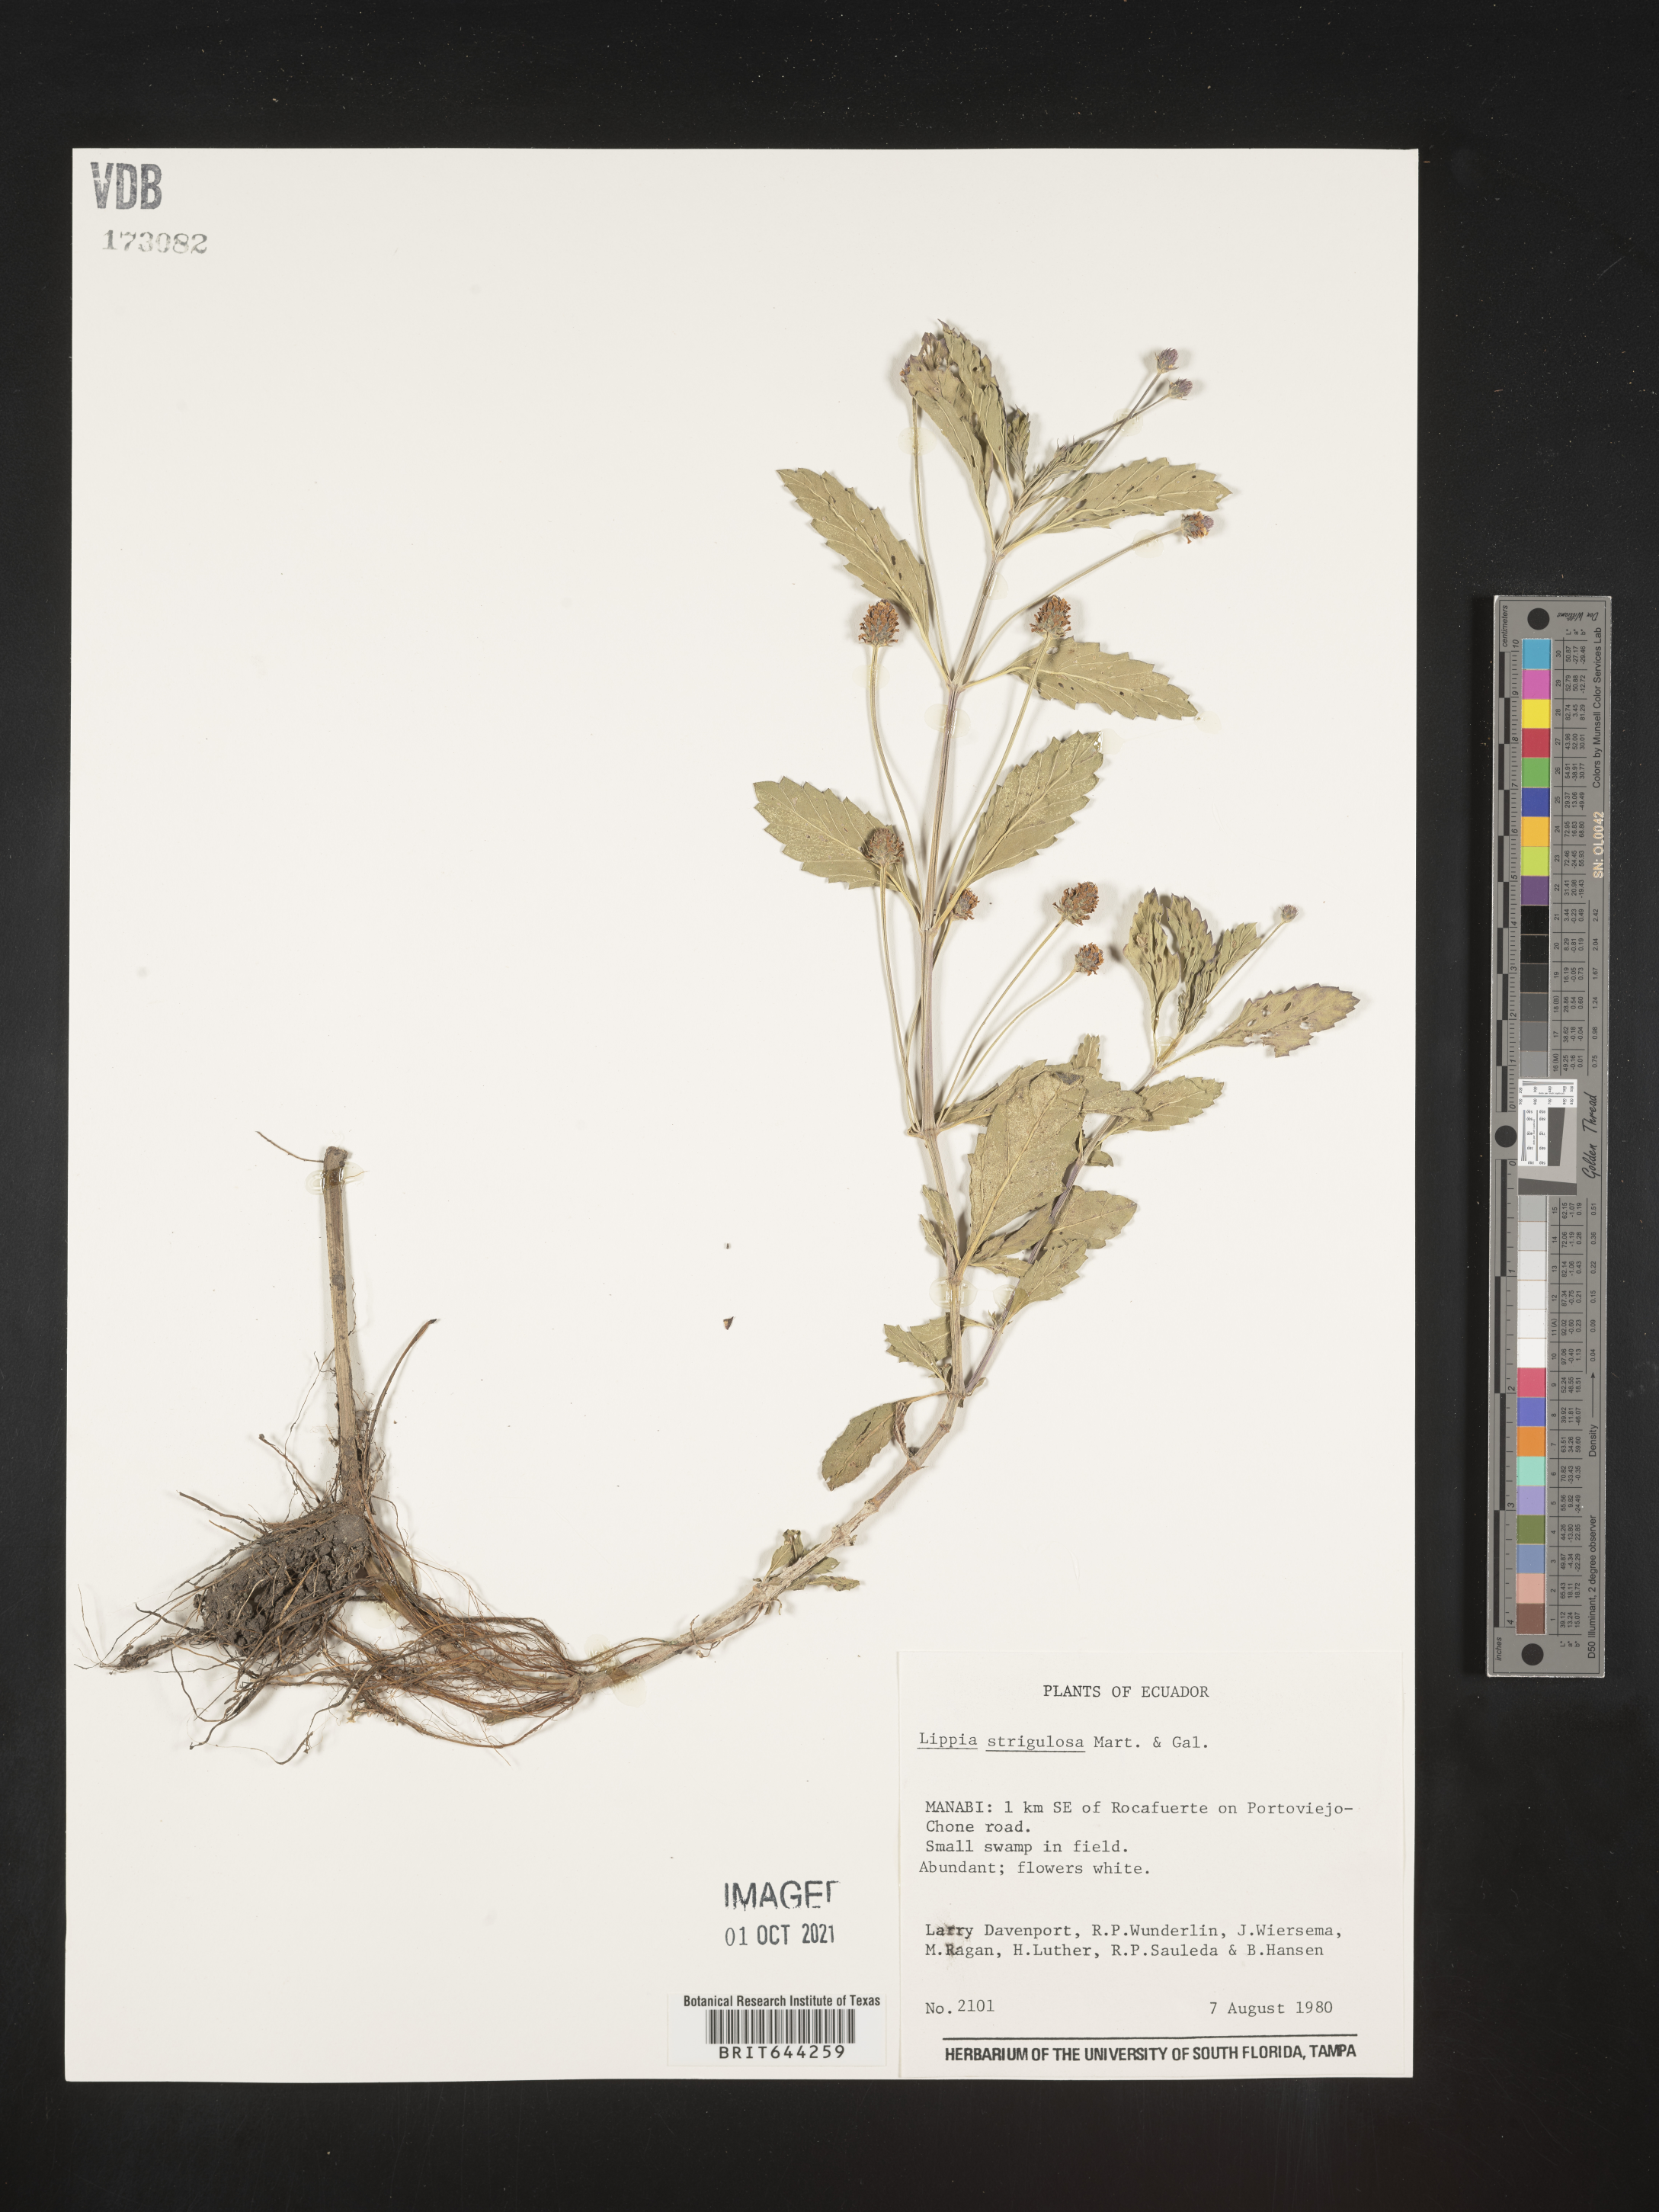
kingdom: Plantae
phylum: Tracheophyta
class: Magnoliopsida
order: Lamiales
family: Verbenaceae
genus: Lippia
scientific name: Lippia
